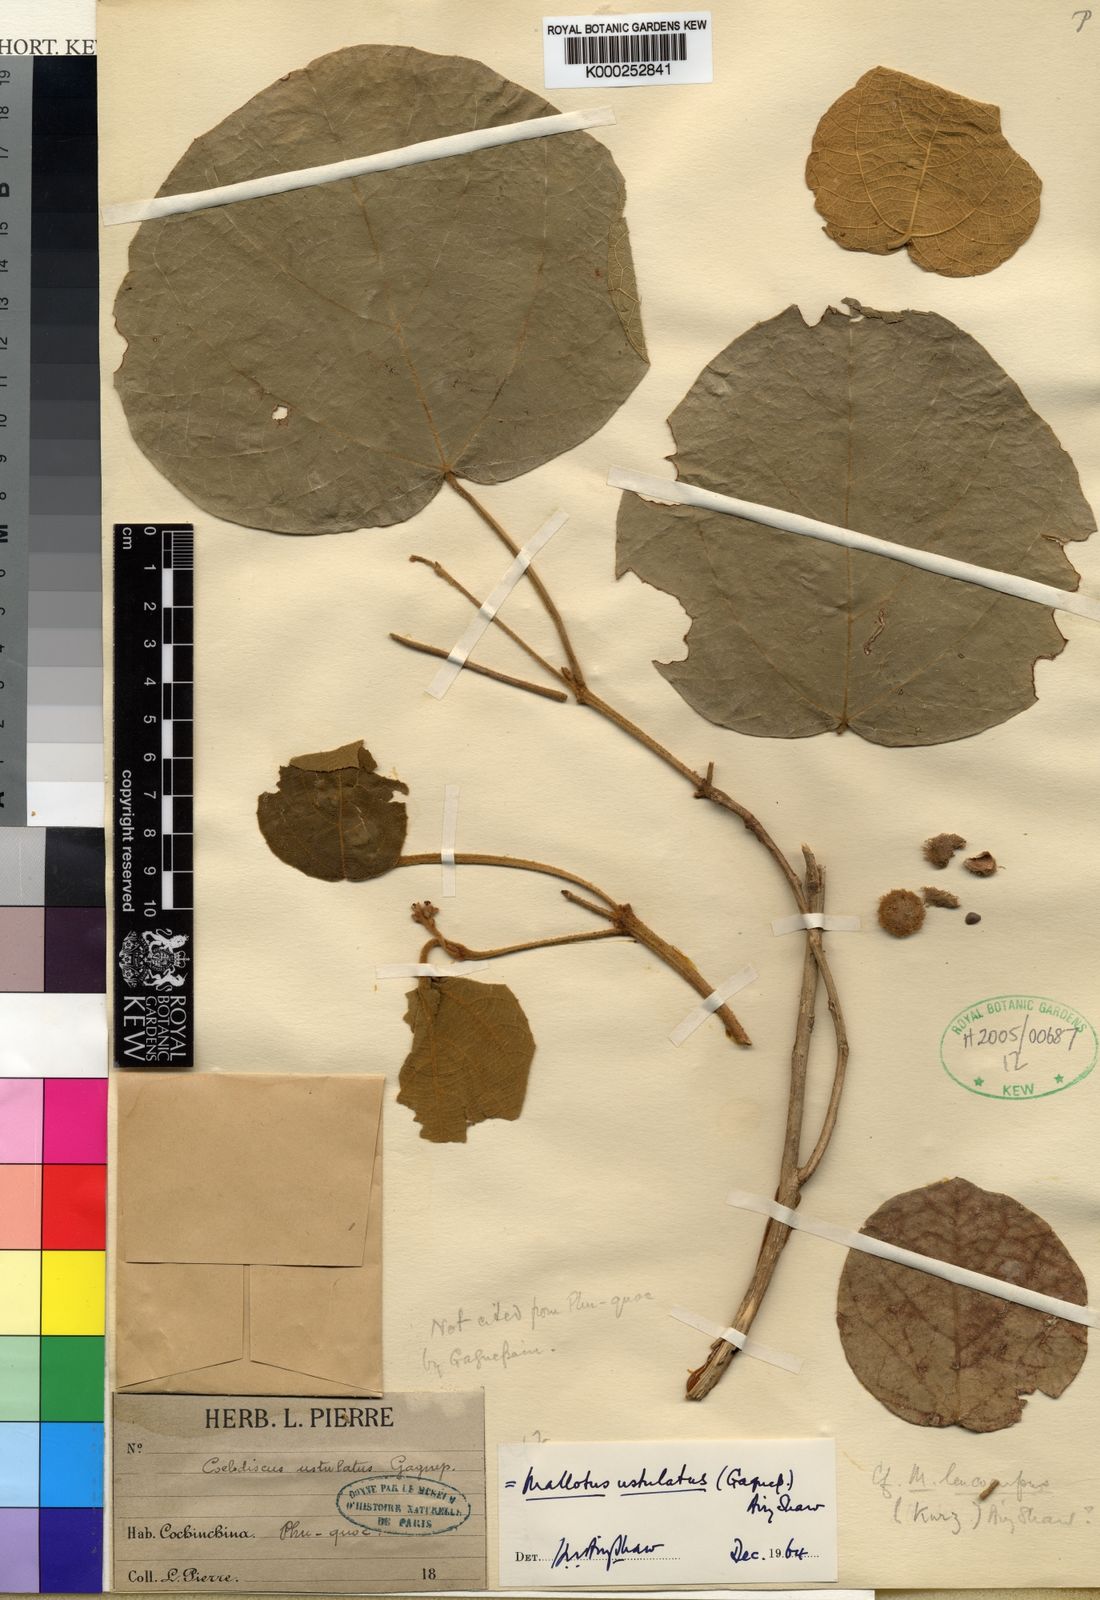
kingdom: Plantae
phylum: Tracheophyta
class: Magnoliopsida
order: Malpighiales
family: Euphorbiaceae
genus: Mallotus
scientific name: Mallotus ustulatus
